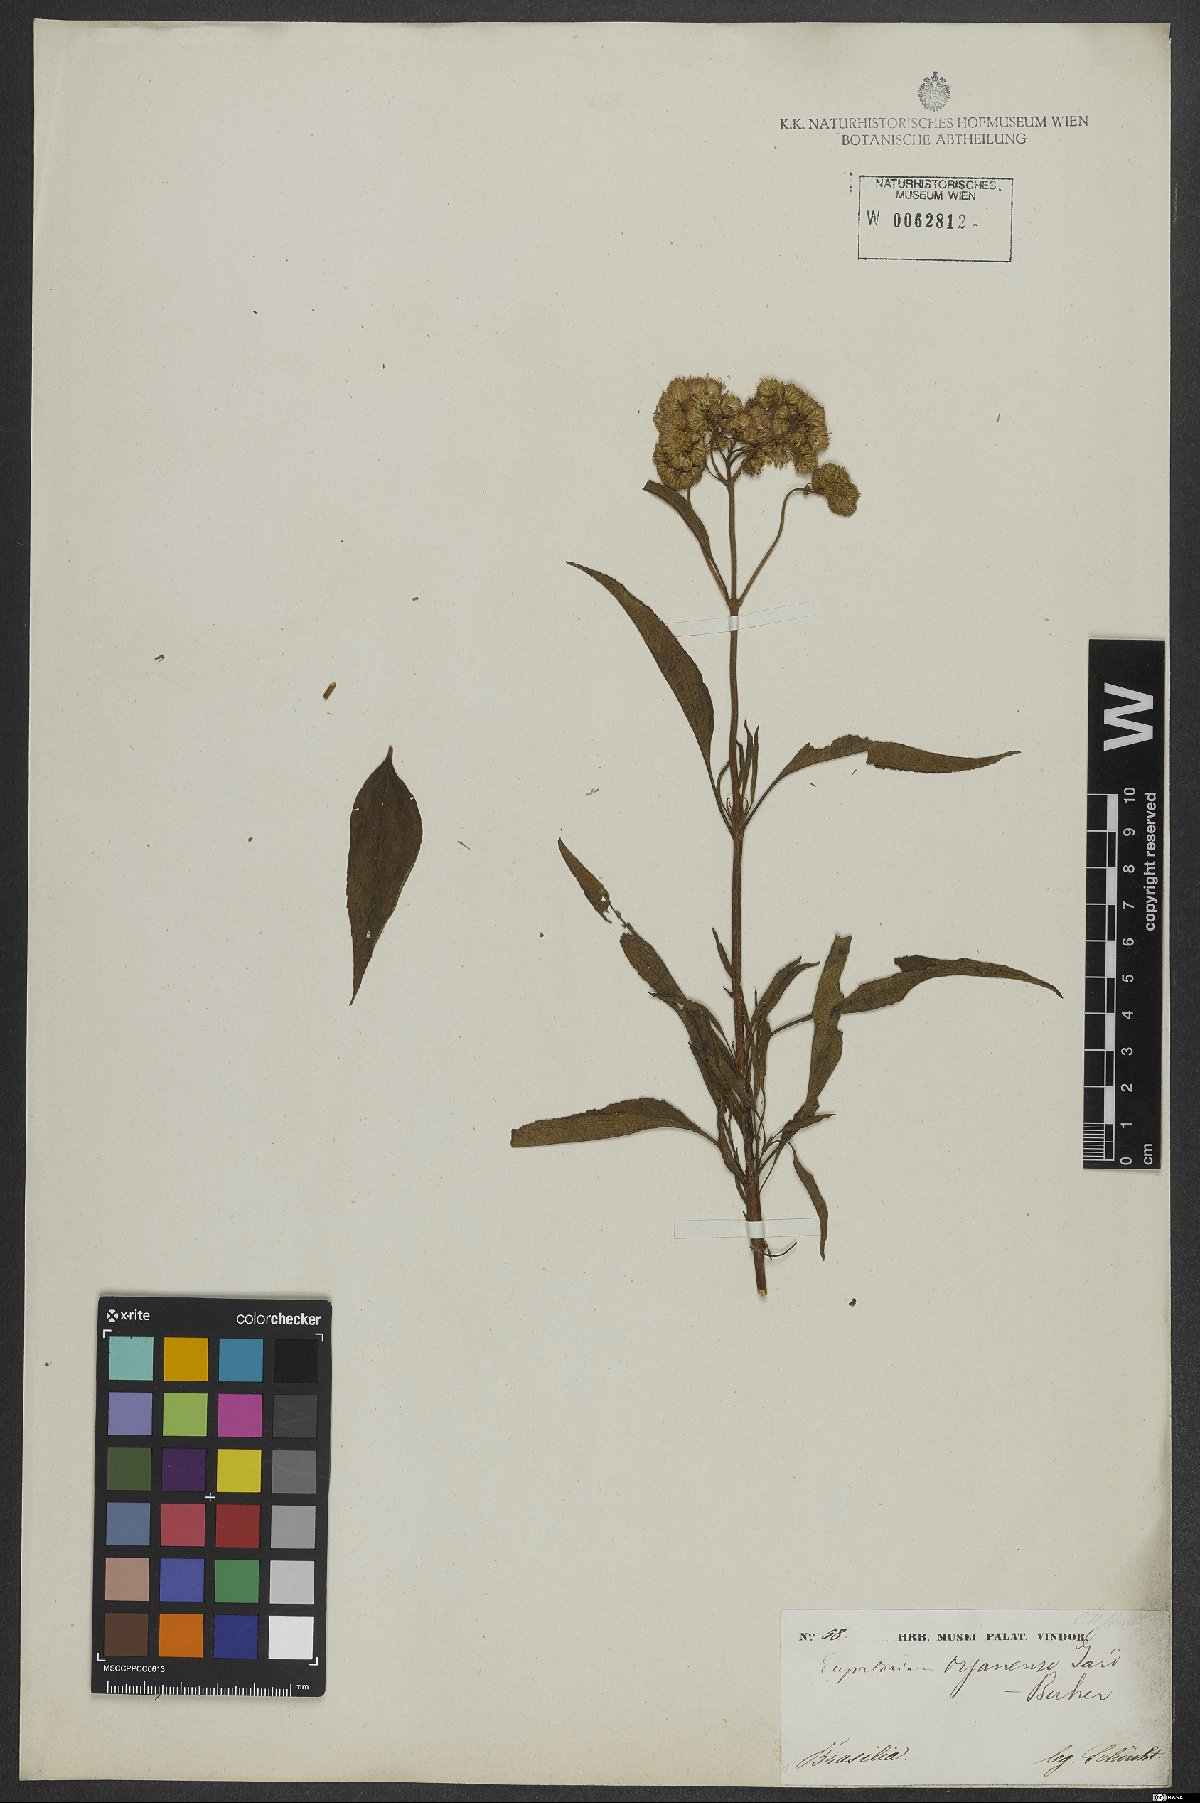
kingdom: Plantae
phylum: Tracheophyta
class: Magnoliopsida
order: Asterales
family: Asteraceae
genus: Barrosoa
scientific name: Barrosoa organensis
